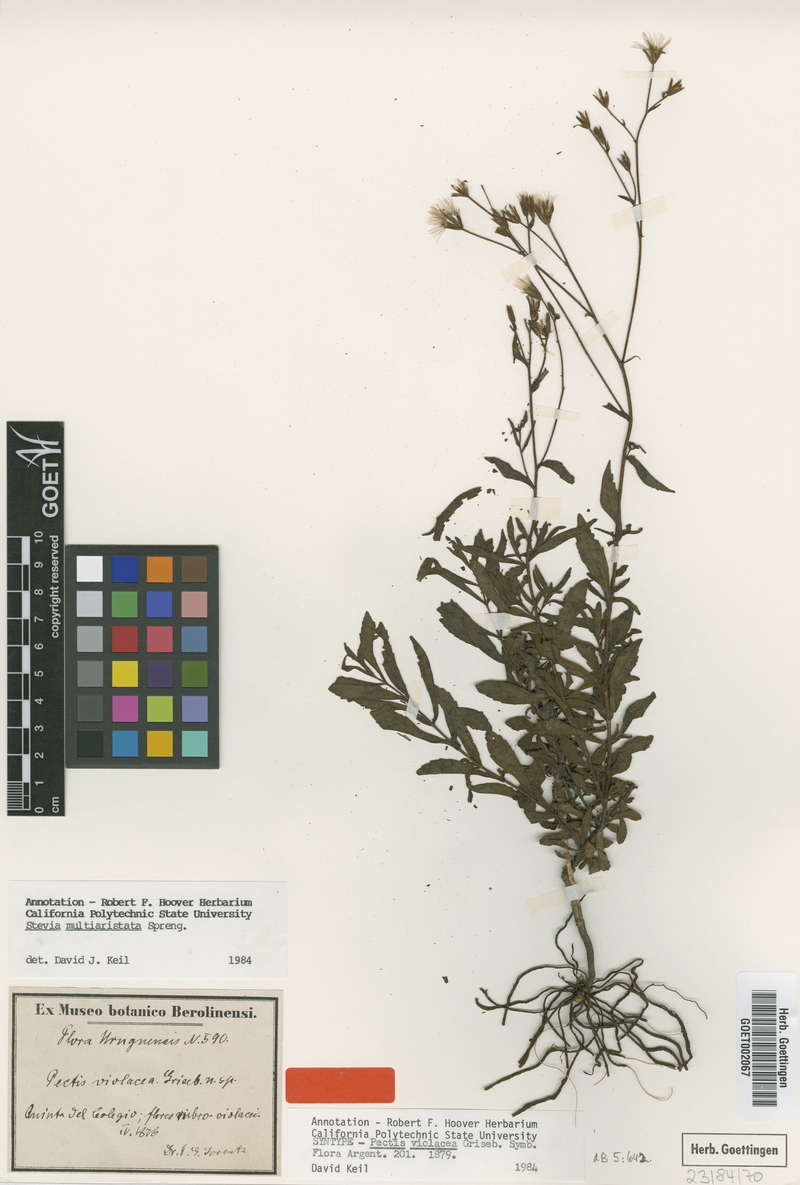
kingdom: Plantae
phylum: Tracheophyta
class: Magnoliopsida
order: Asterales
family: Asteraceae
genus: Stevia
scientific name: Stevia multiaristata
